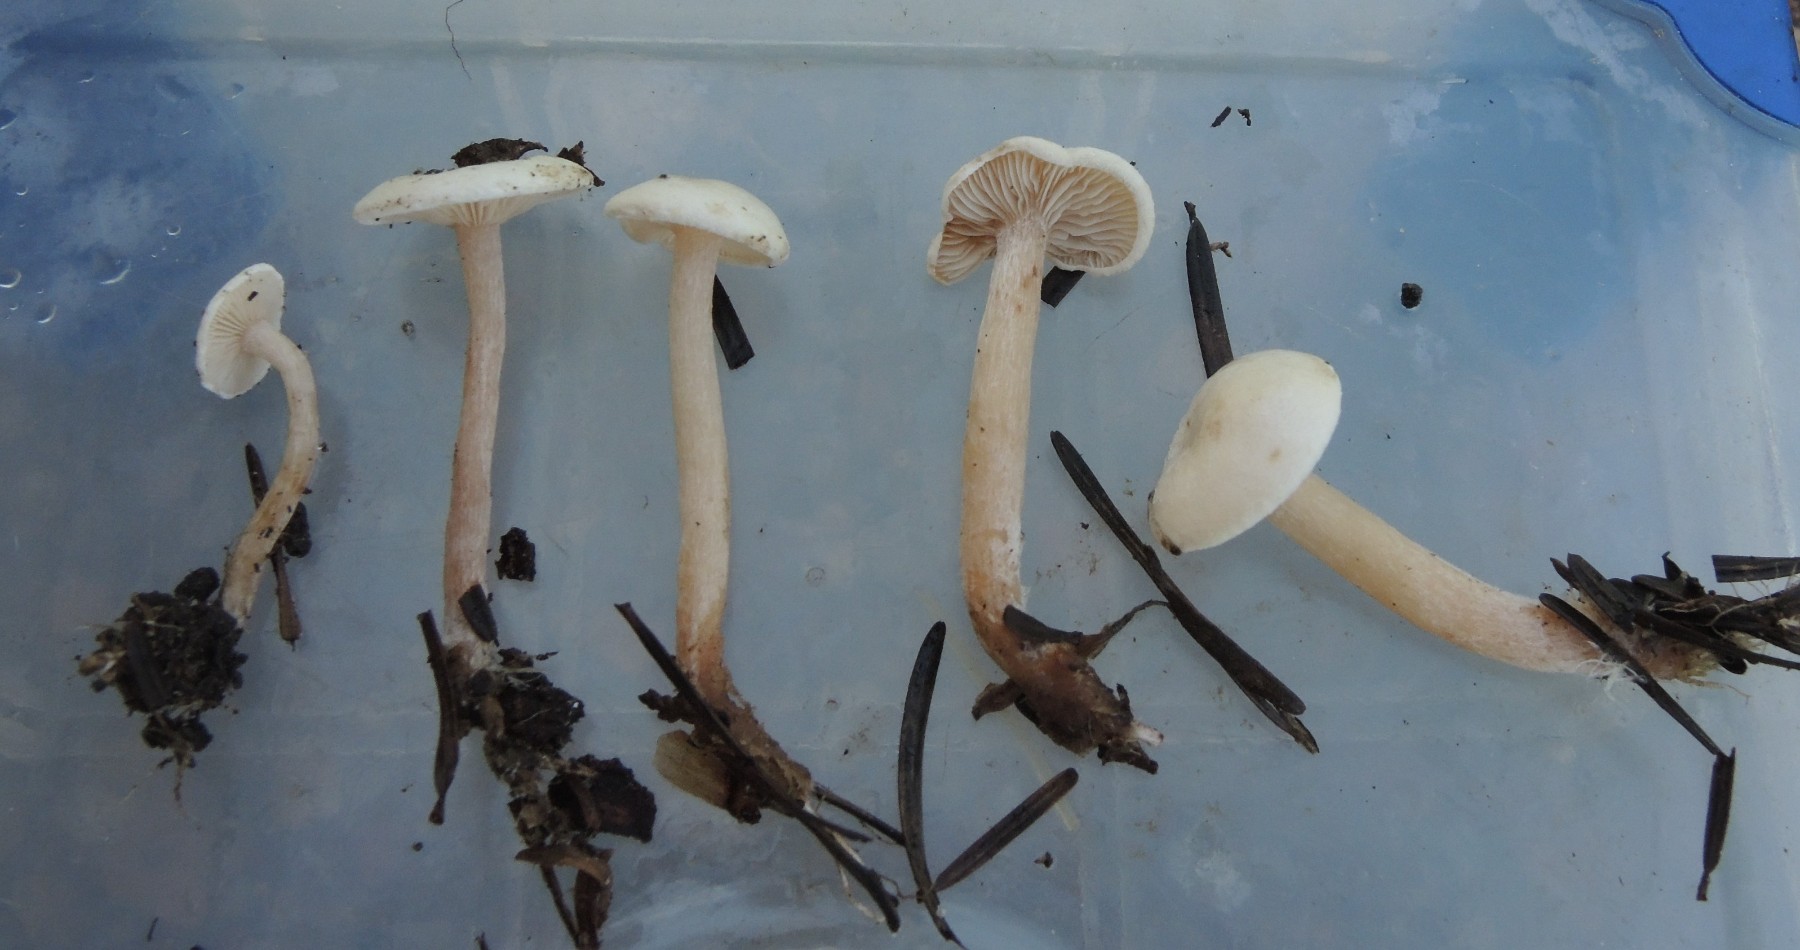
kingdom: Fungi
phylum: Basidiomycota
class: Agaricomycetes
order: Agaricales
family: Tricholomataceae
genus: Ripartites
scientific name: Ripartites tricholoma
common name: almindelig skæghat
